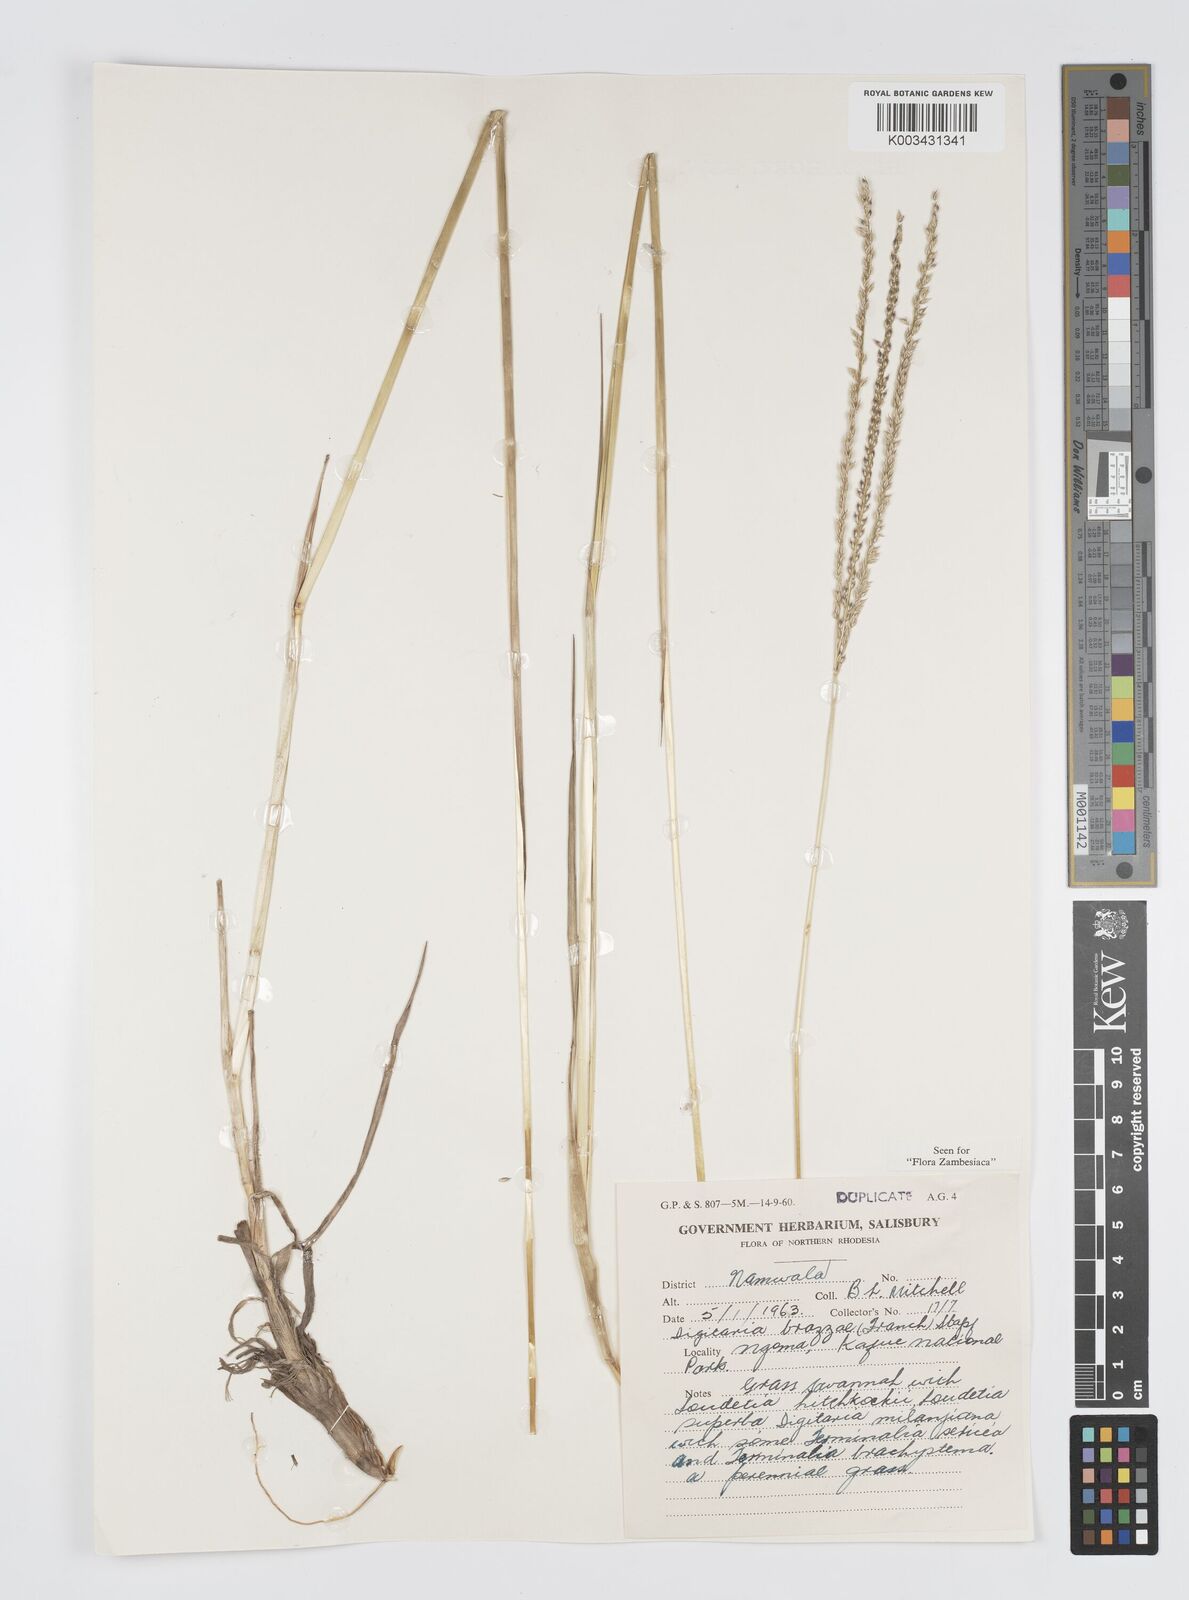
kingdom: Plantae
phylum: Tracheophyta
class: Liliopsida
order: Poales
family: Poaceae
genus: Digitaria
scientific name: Digitaria brazzae
